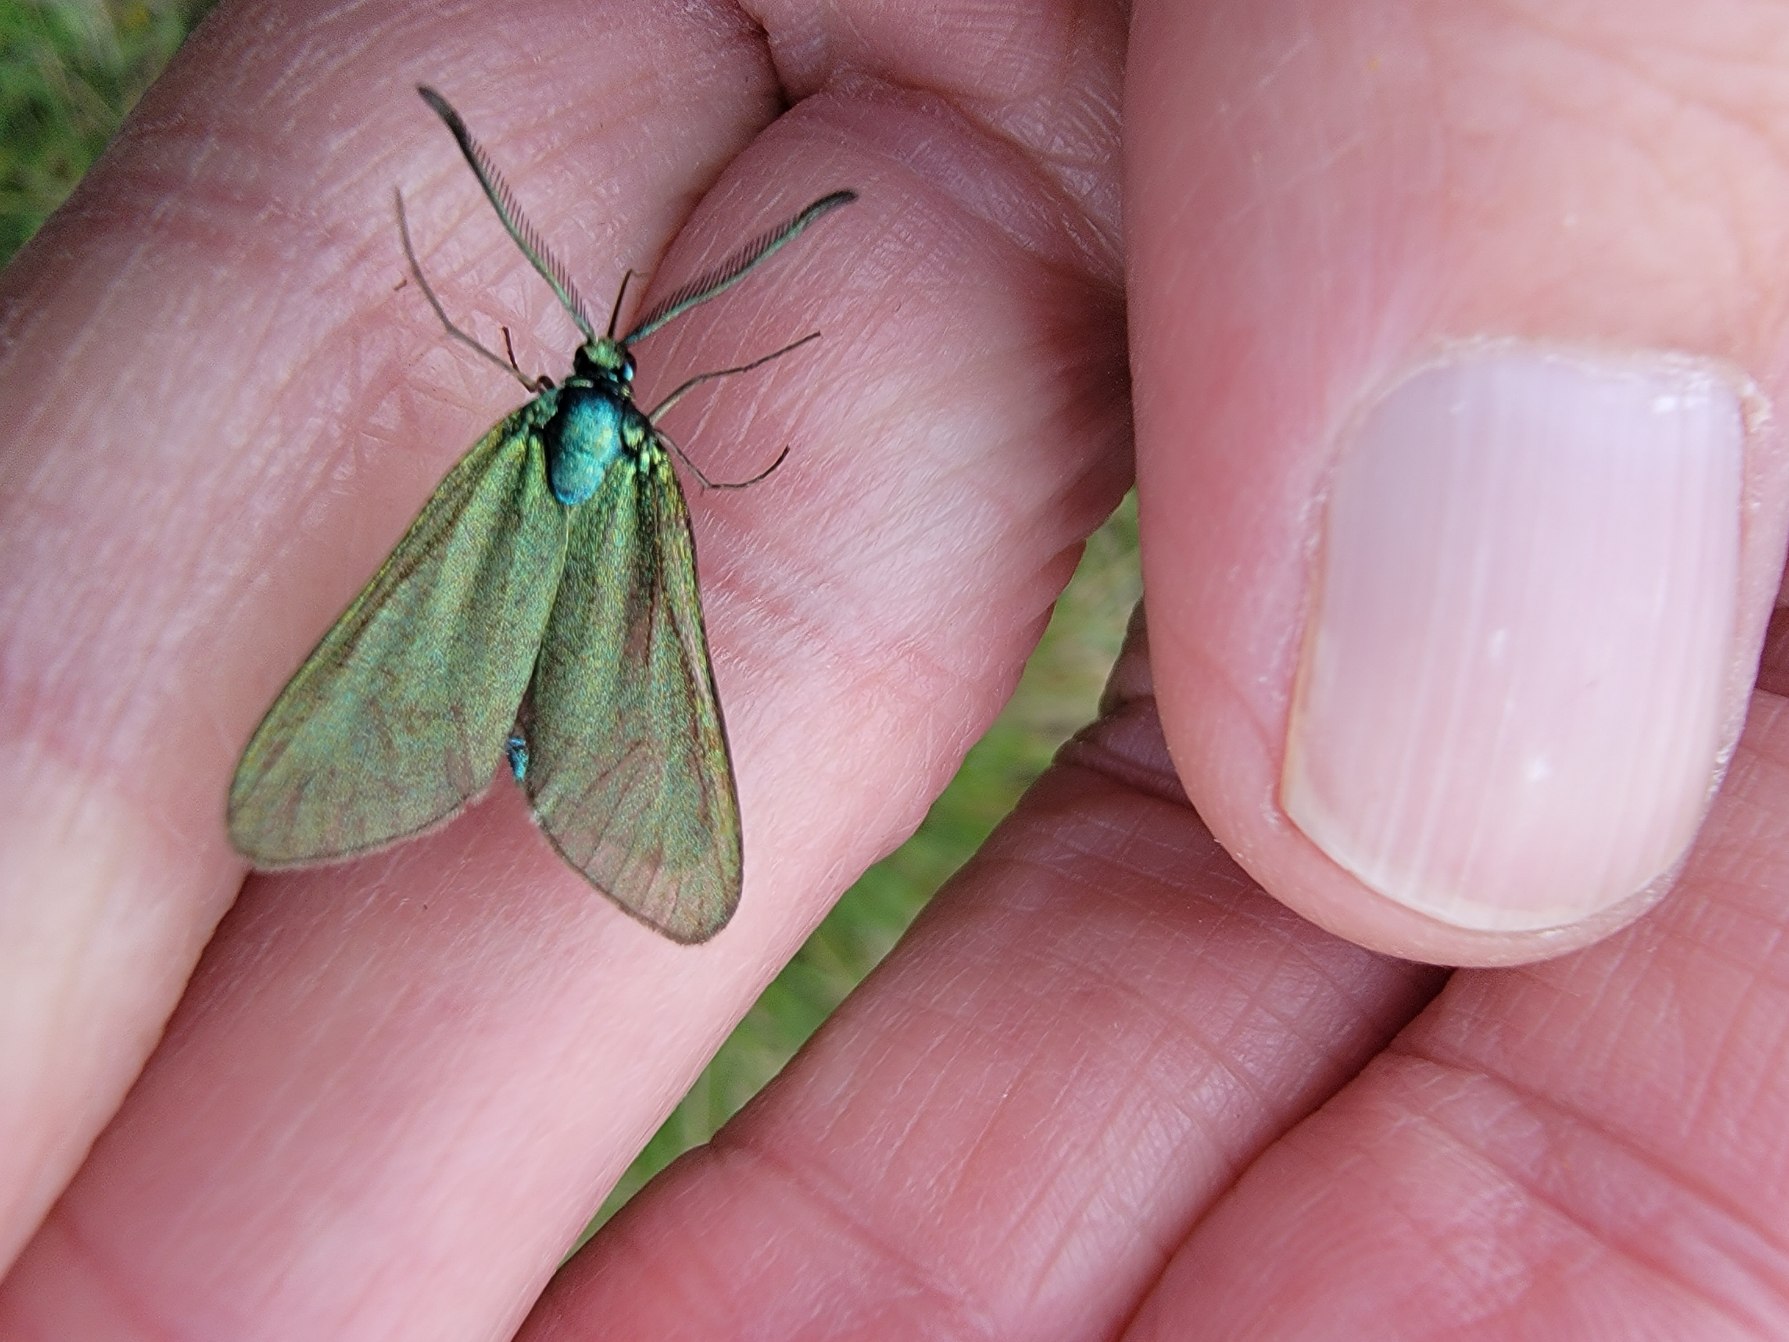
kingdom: Animalia
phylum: Arthropoda
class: Insecta
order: Lepidoptera
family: Zygaenidae
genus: Adscita
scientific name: Adscita statices
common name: Metalvinge
